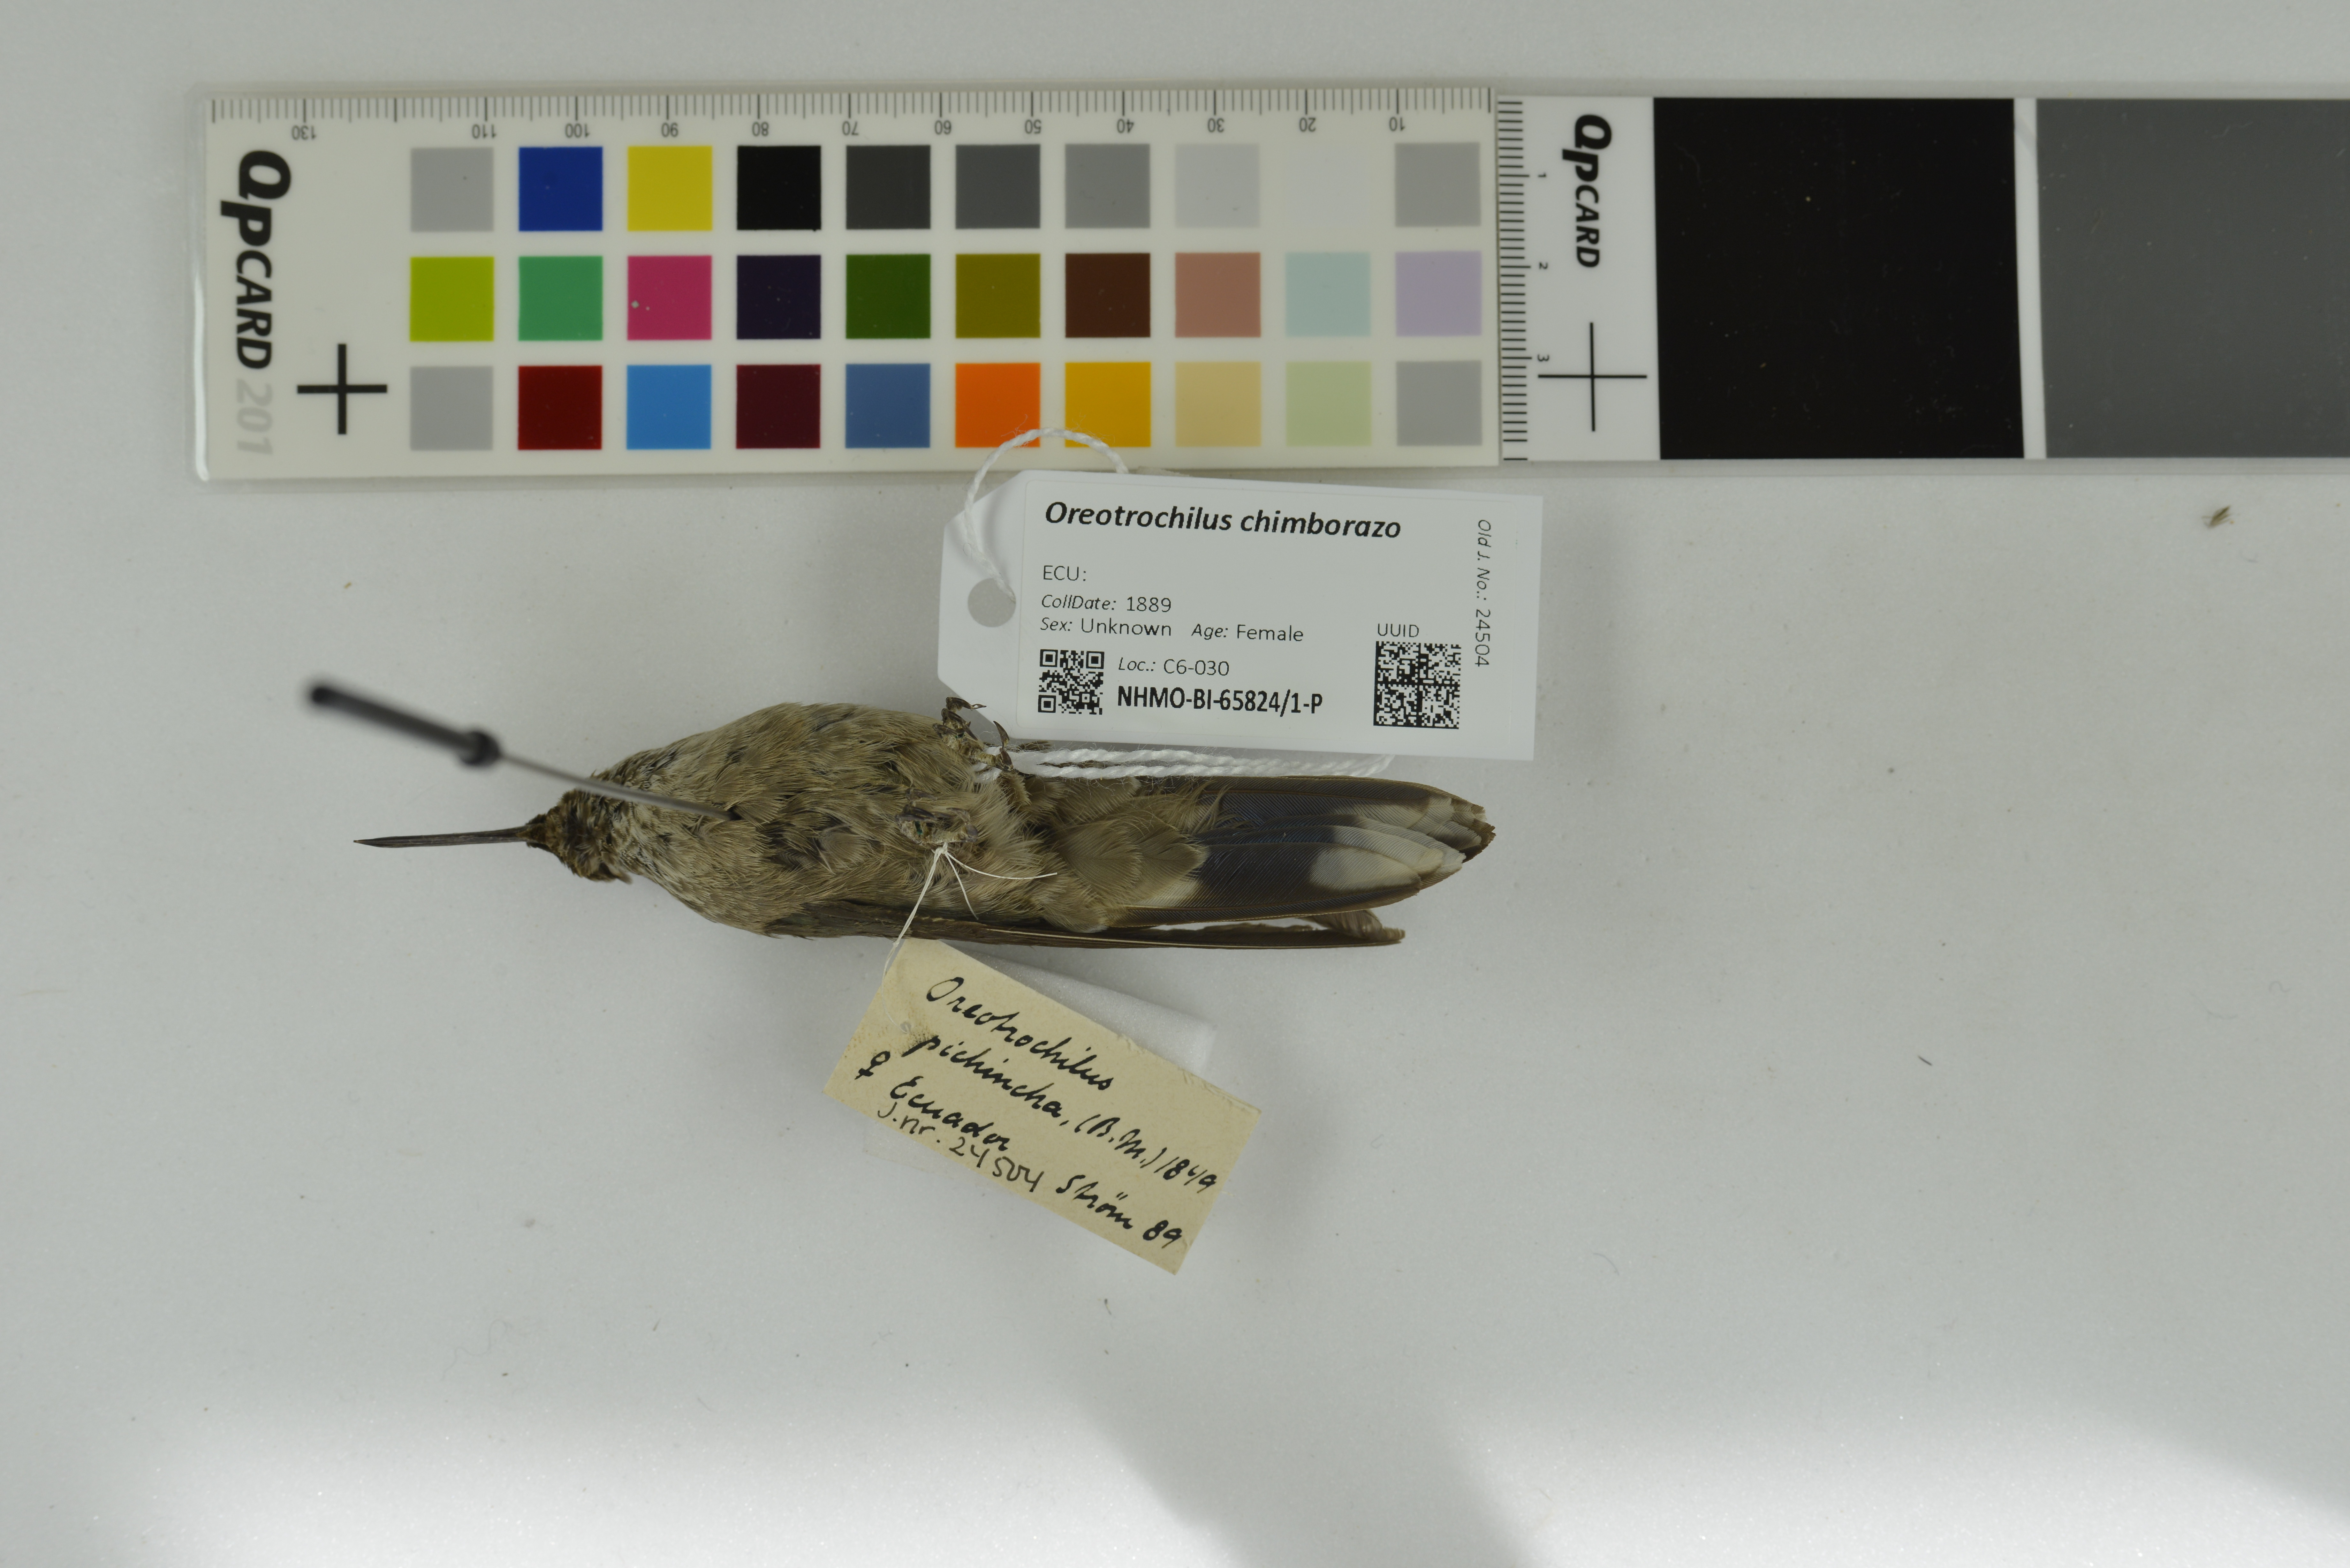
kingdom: Animalia
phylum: Chordata
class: Aves
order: Apodiformes
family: Trochilidae
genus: Oreotrochilus
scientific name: Oreotrochilus chimborazo
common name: Ecuadorian hillstar
